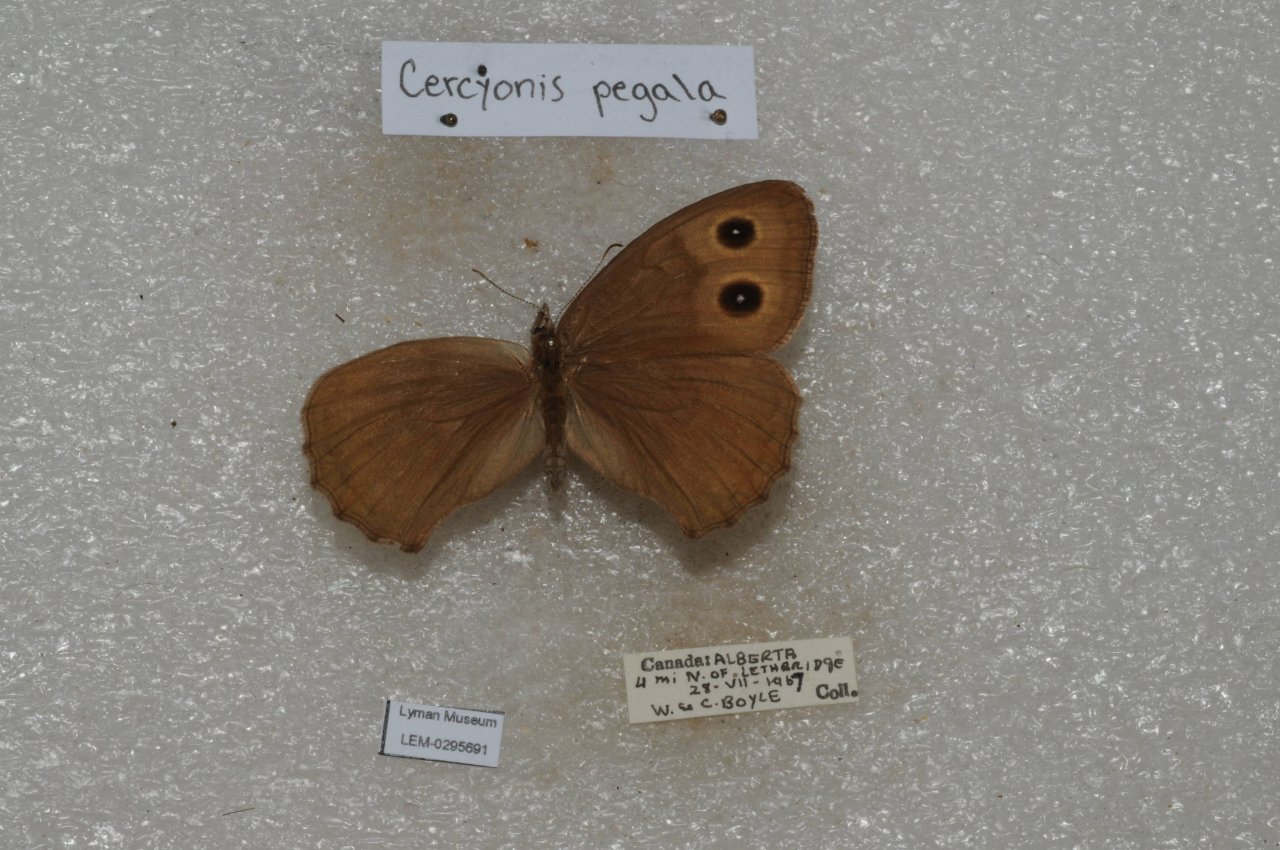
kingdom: Animalia
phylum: Arthropoda
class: Insecta
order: Lepidoptera
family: Nymphalidae
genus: Cercyonis
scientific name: Cercyonis pegala
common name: Common Wood-Nymph
